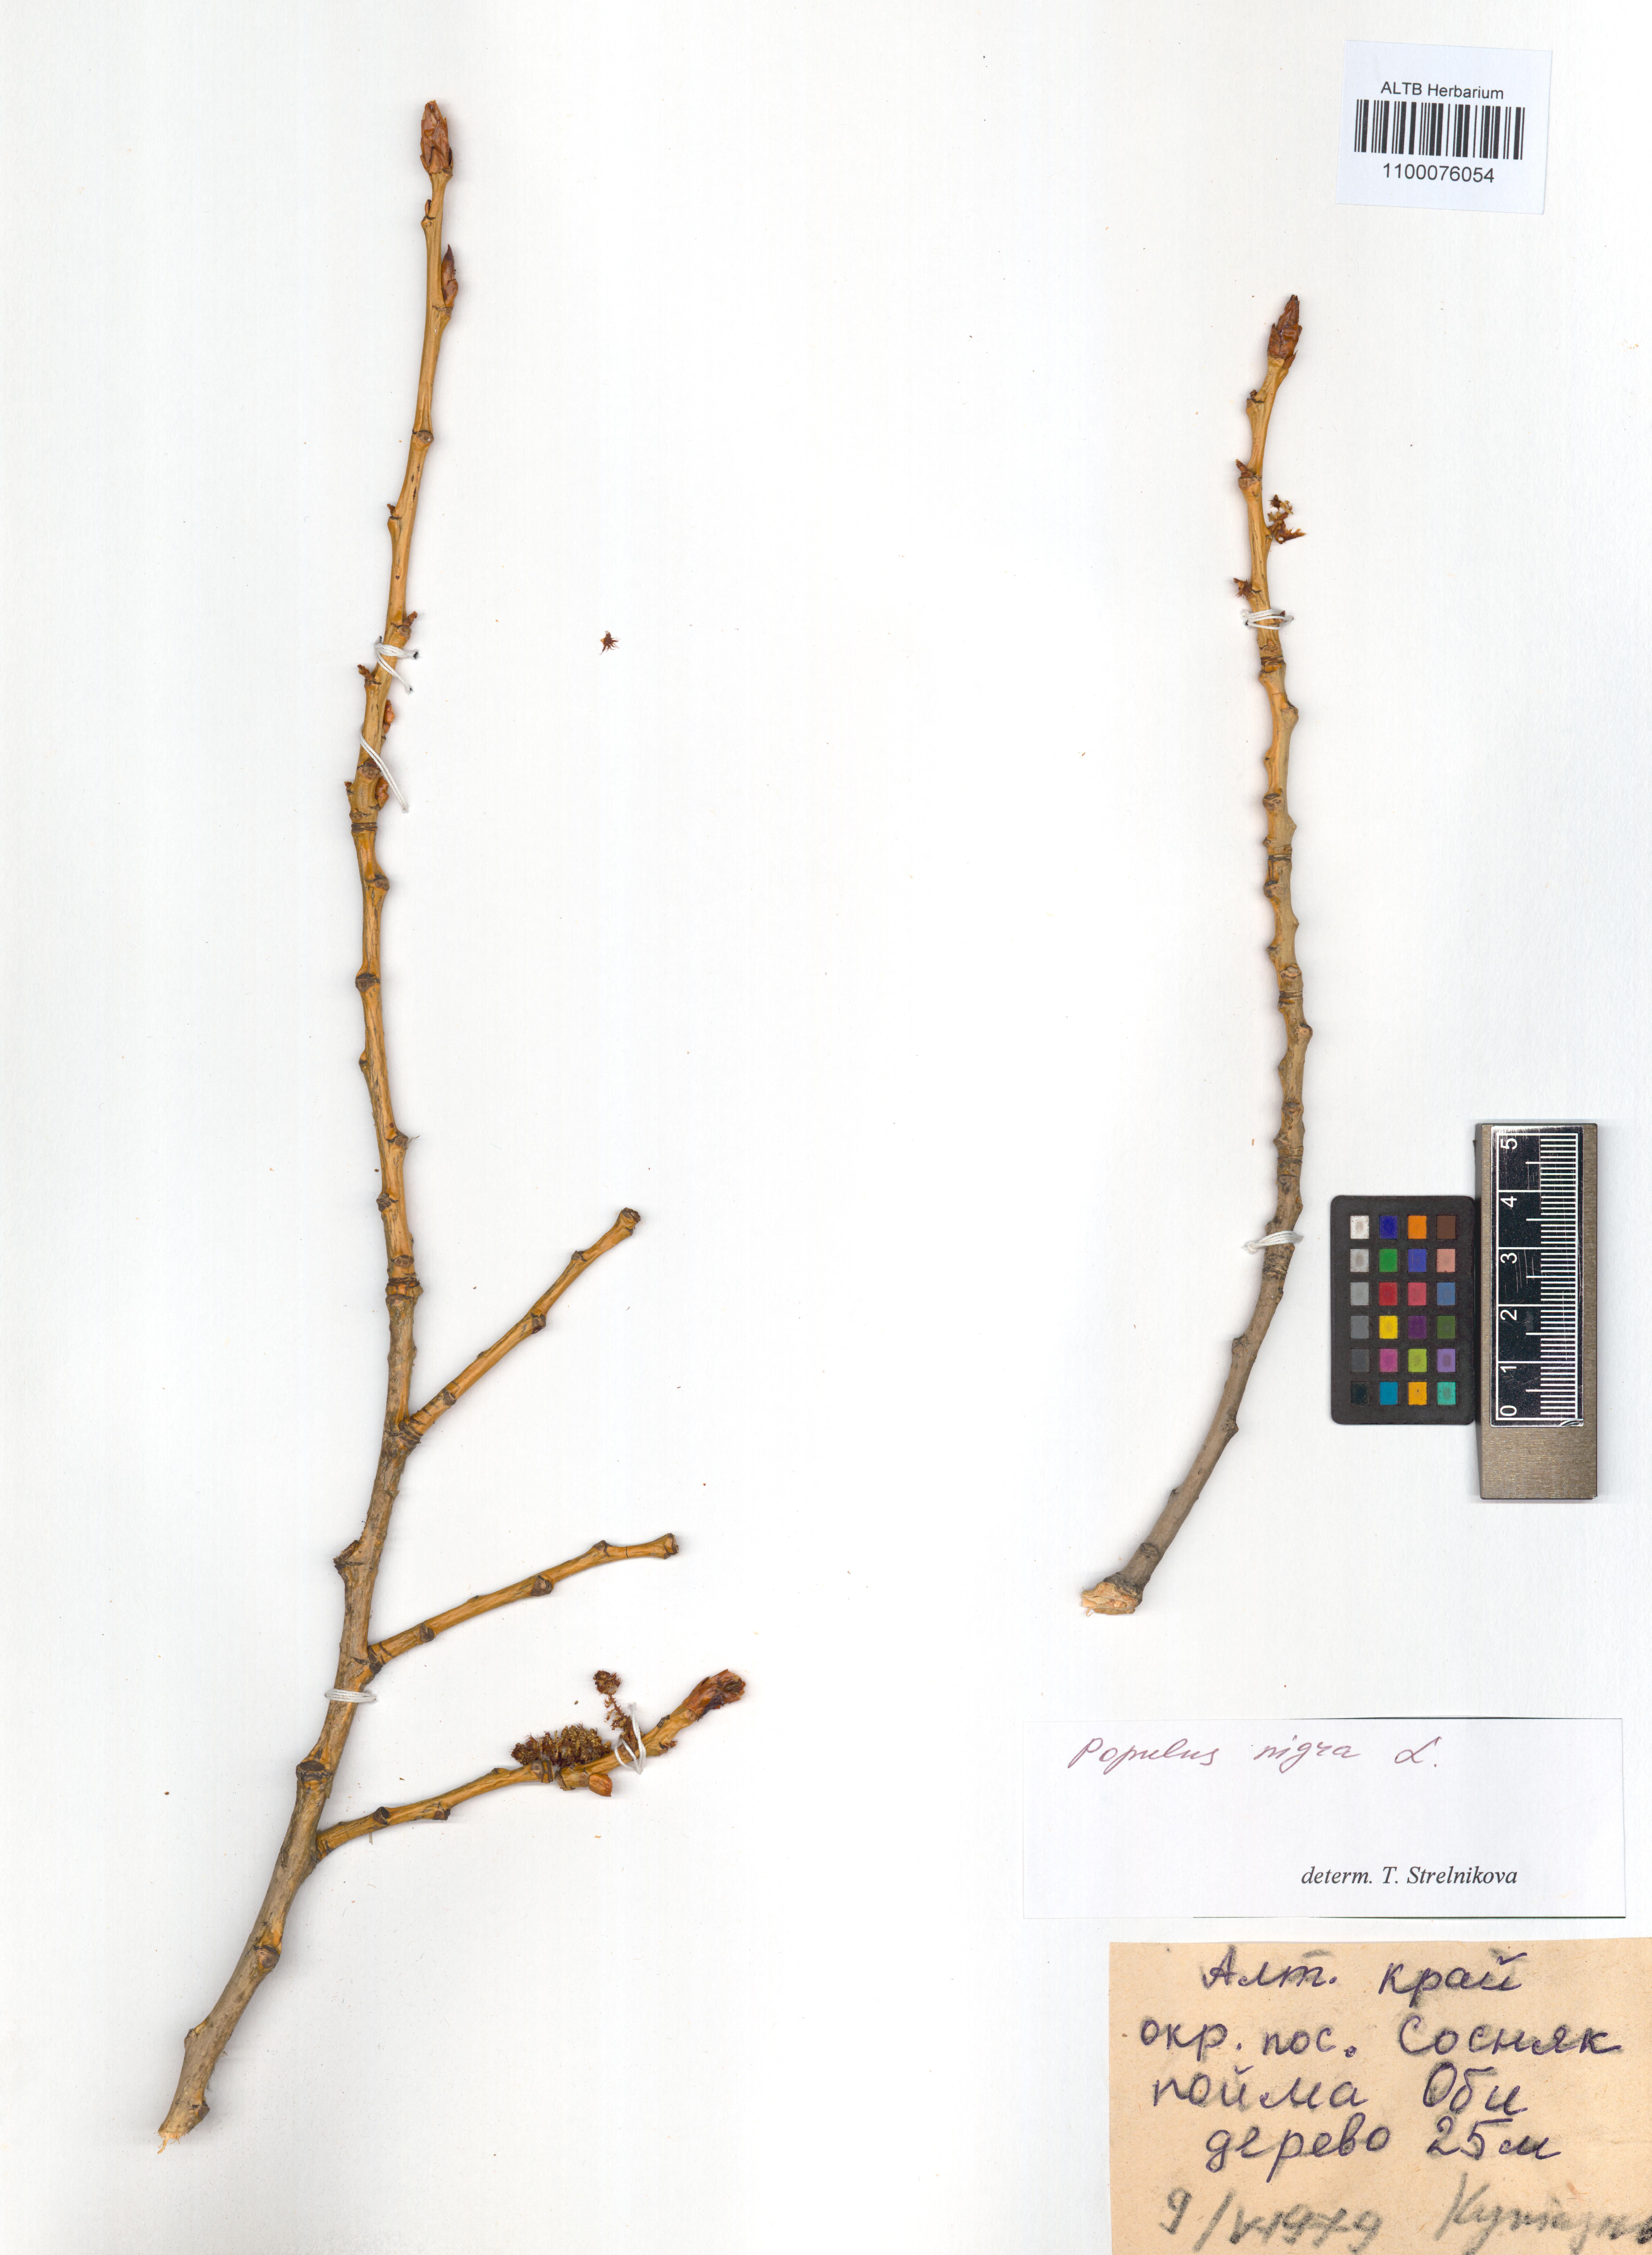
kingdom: Plantae
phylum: Tracheophyta
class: Magnoliopsida
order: Malpighiales
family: Salicaceae
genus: Populus
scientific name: Populus nigra
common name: Black poplar
